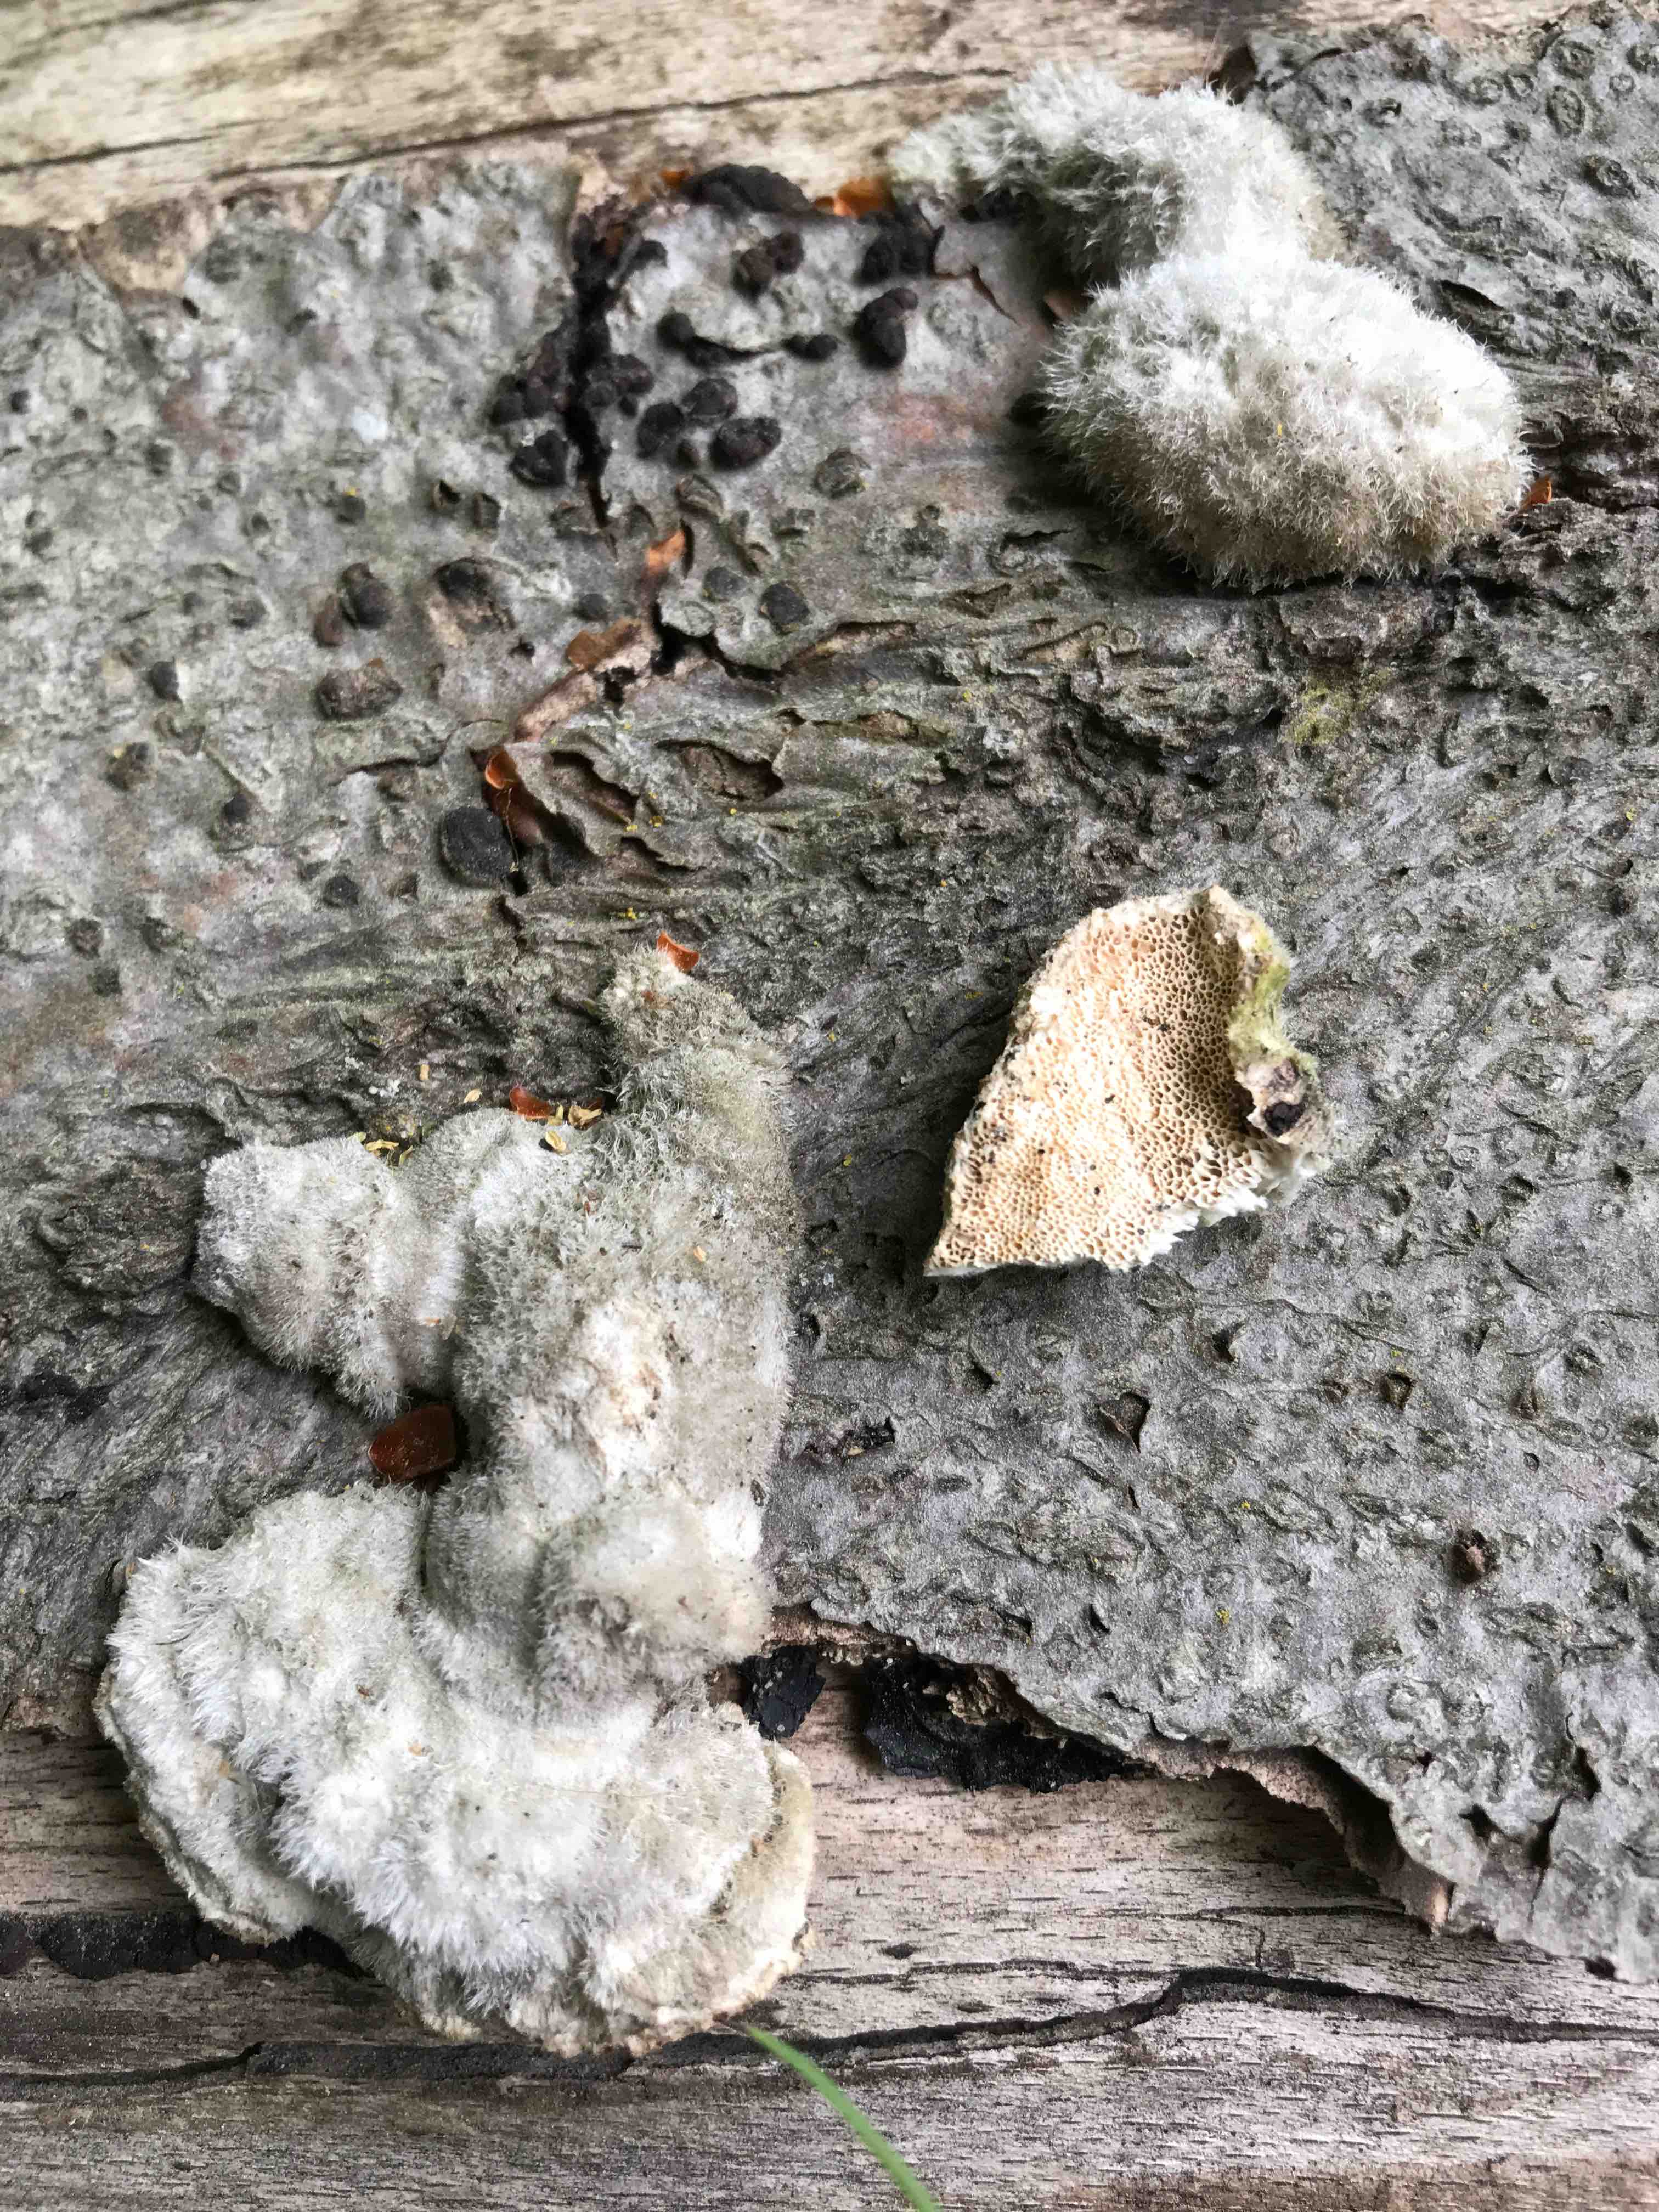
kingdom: Fungi
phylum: Basidiomycota
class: Agaricomycetes
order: Polyporales
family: Polyporaceae
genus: Trametes
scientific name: Trametes hirsuta
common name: håret læderporesvamp
